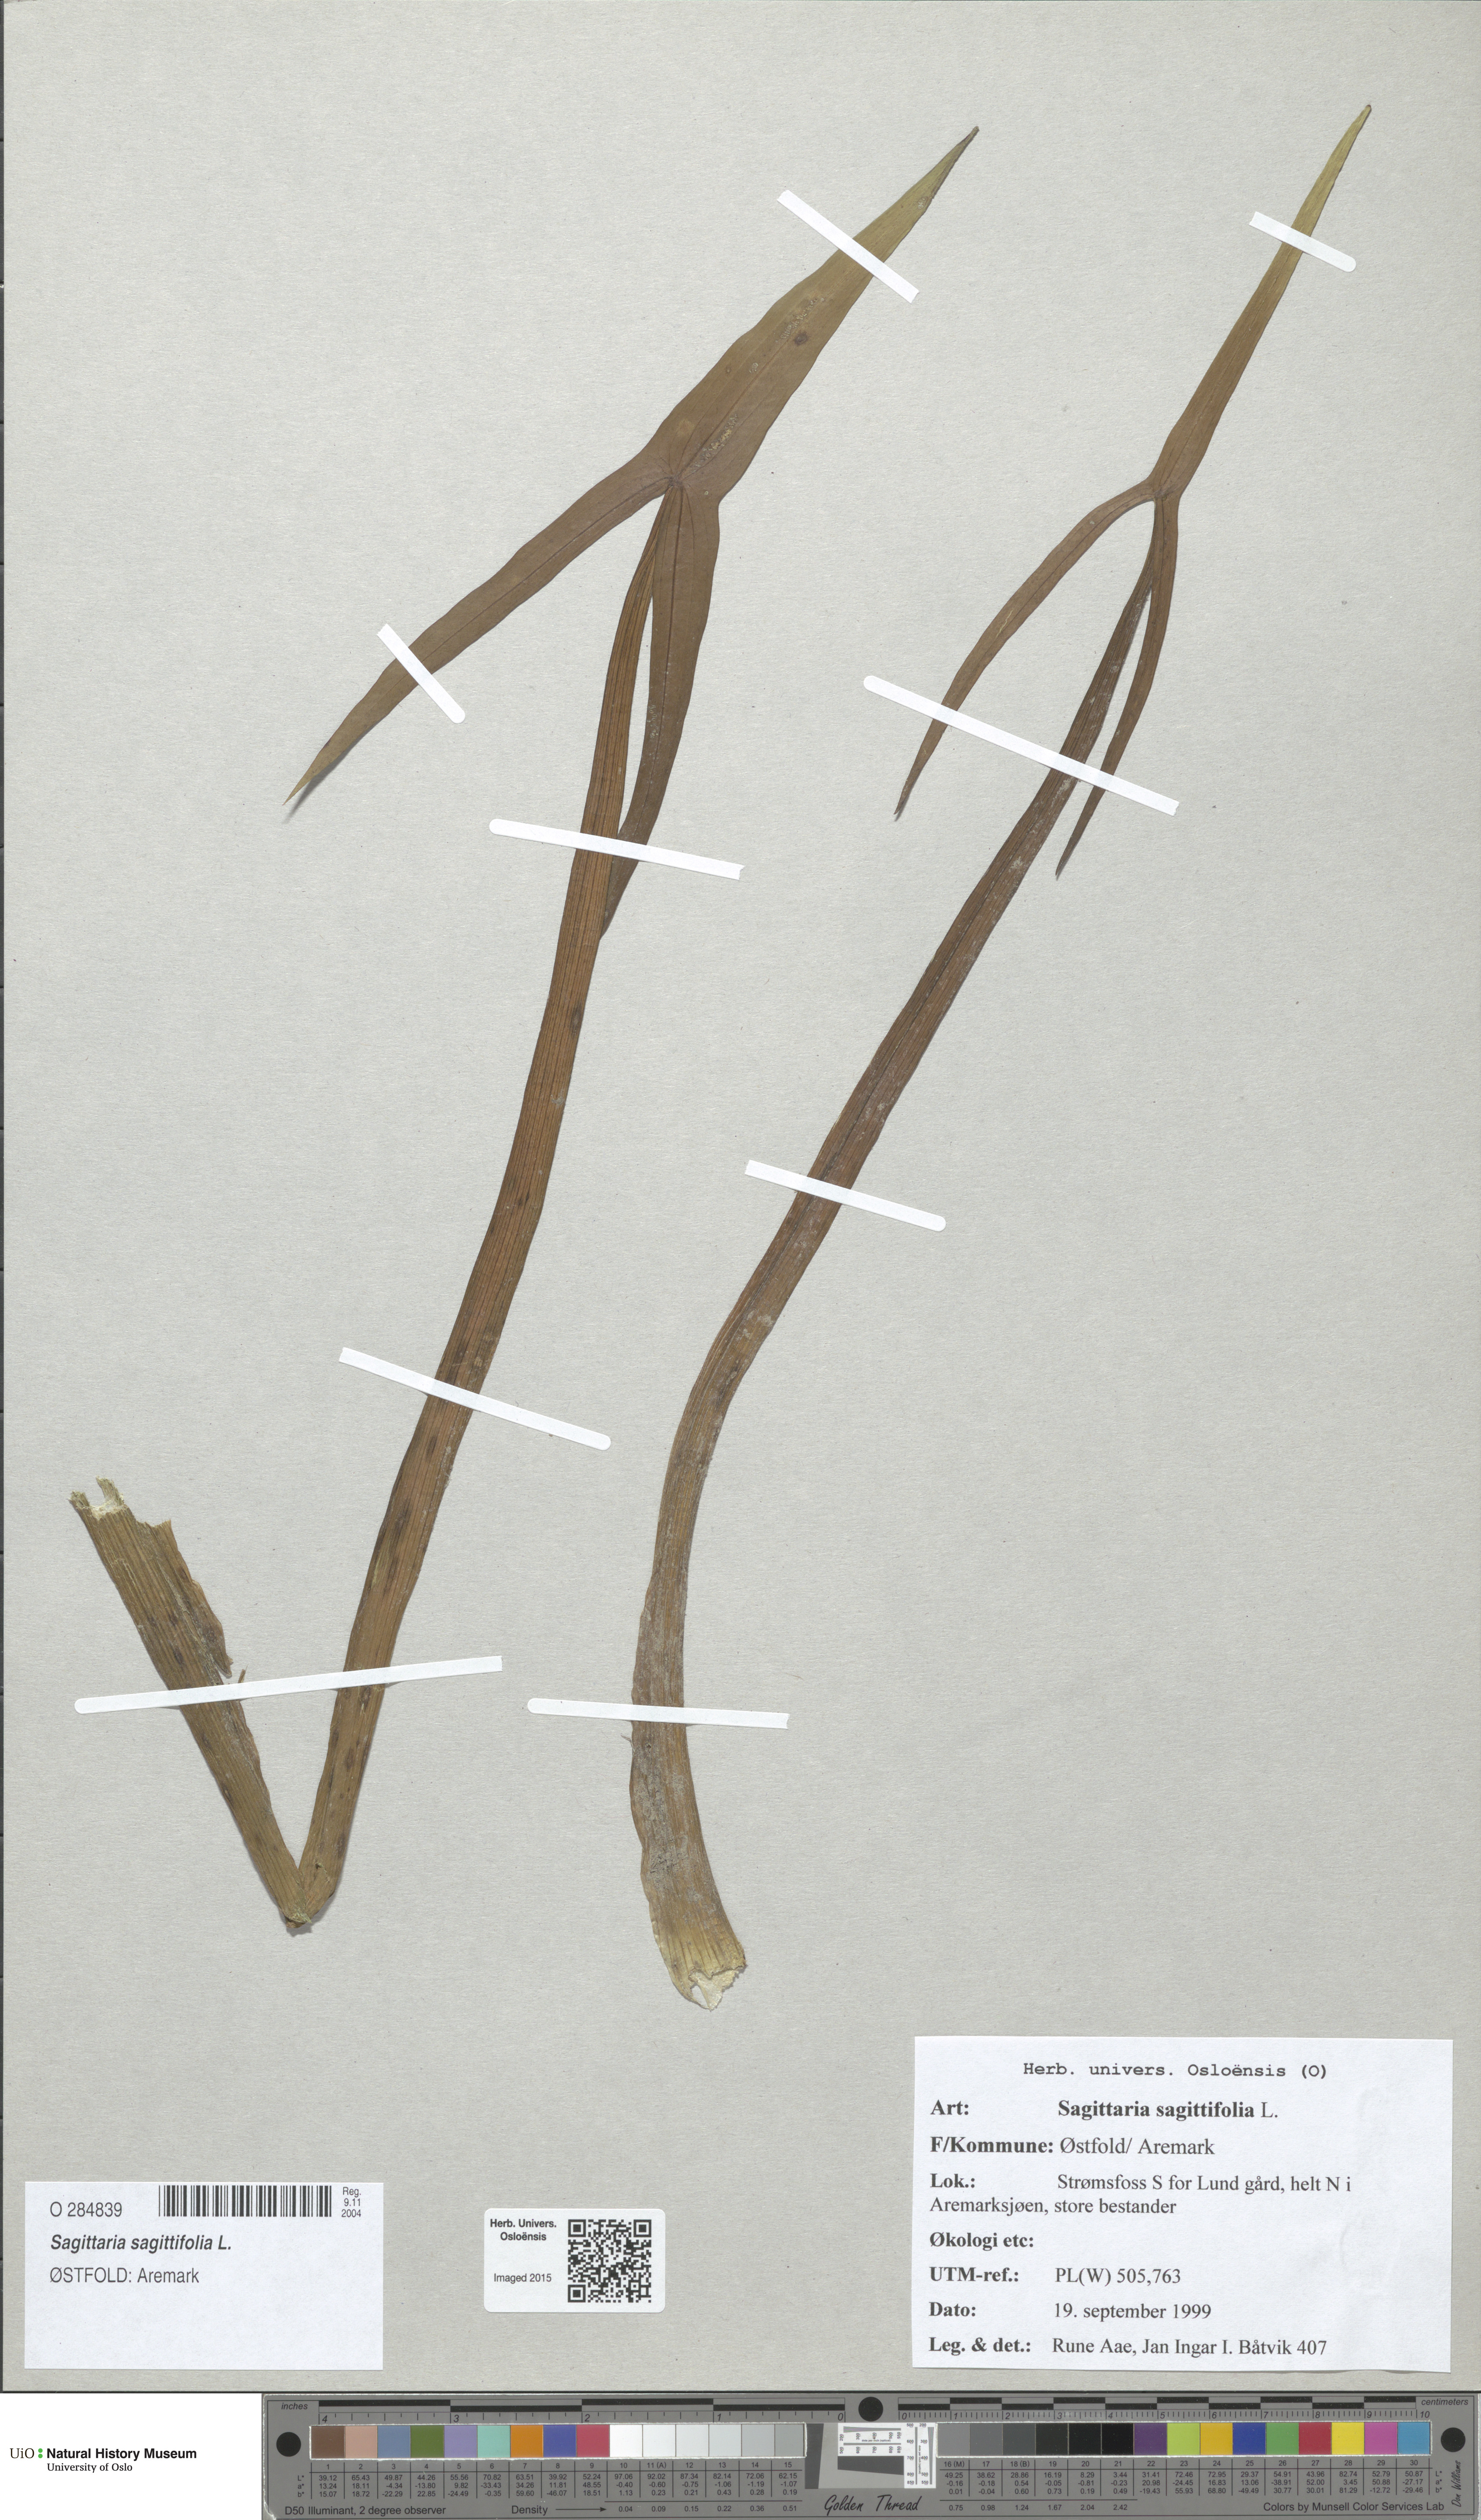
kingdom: Plantae
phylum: Tracheophyta
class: Liliopsida
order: Alismatales
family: Alismataceae
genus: Sagittaria
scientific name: Sagittaria sagittifolia
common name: Arrowhead
